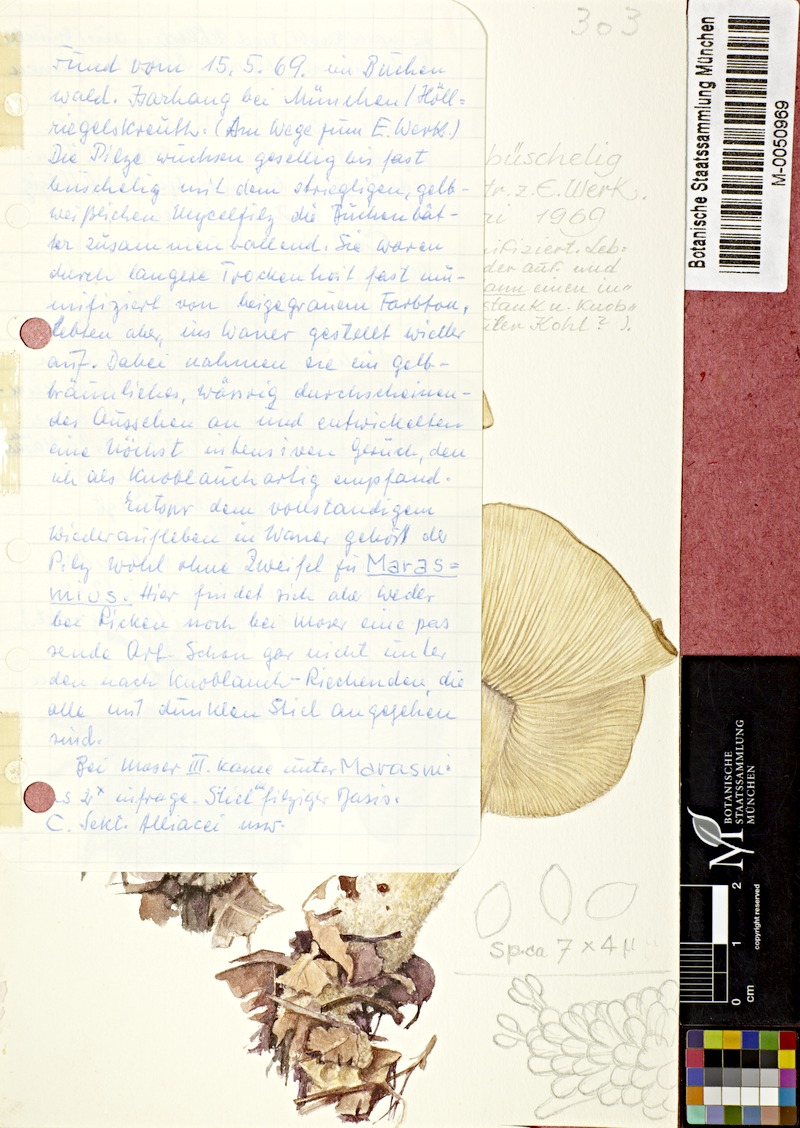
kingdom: Fungi
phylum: Basidiomycota
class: Agaricomycetes
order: Agaricales
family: Omphalotaceae
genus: Gymnopus
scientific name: Gymnopus hariolorum
